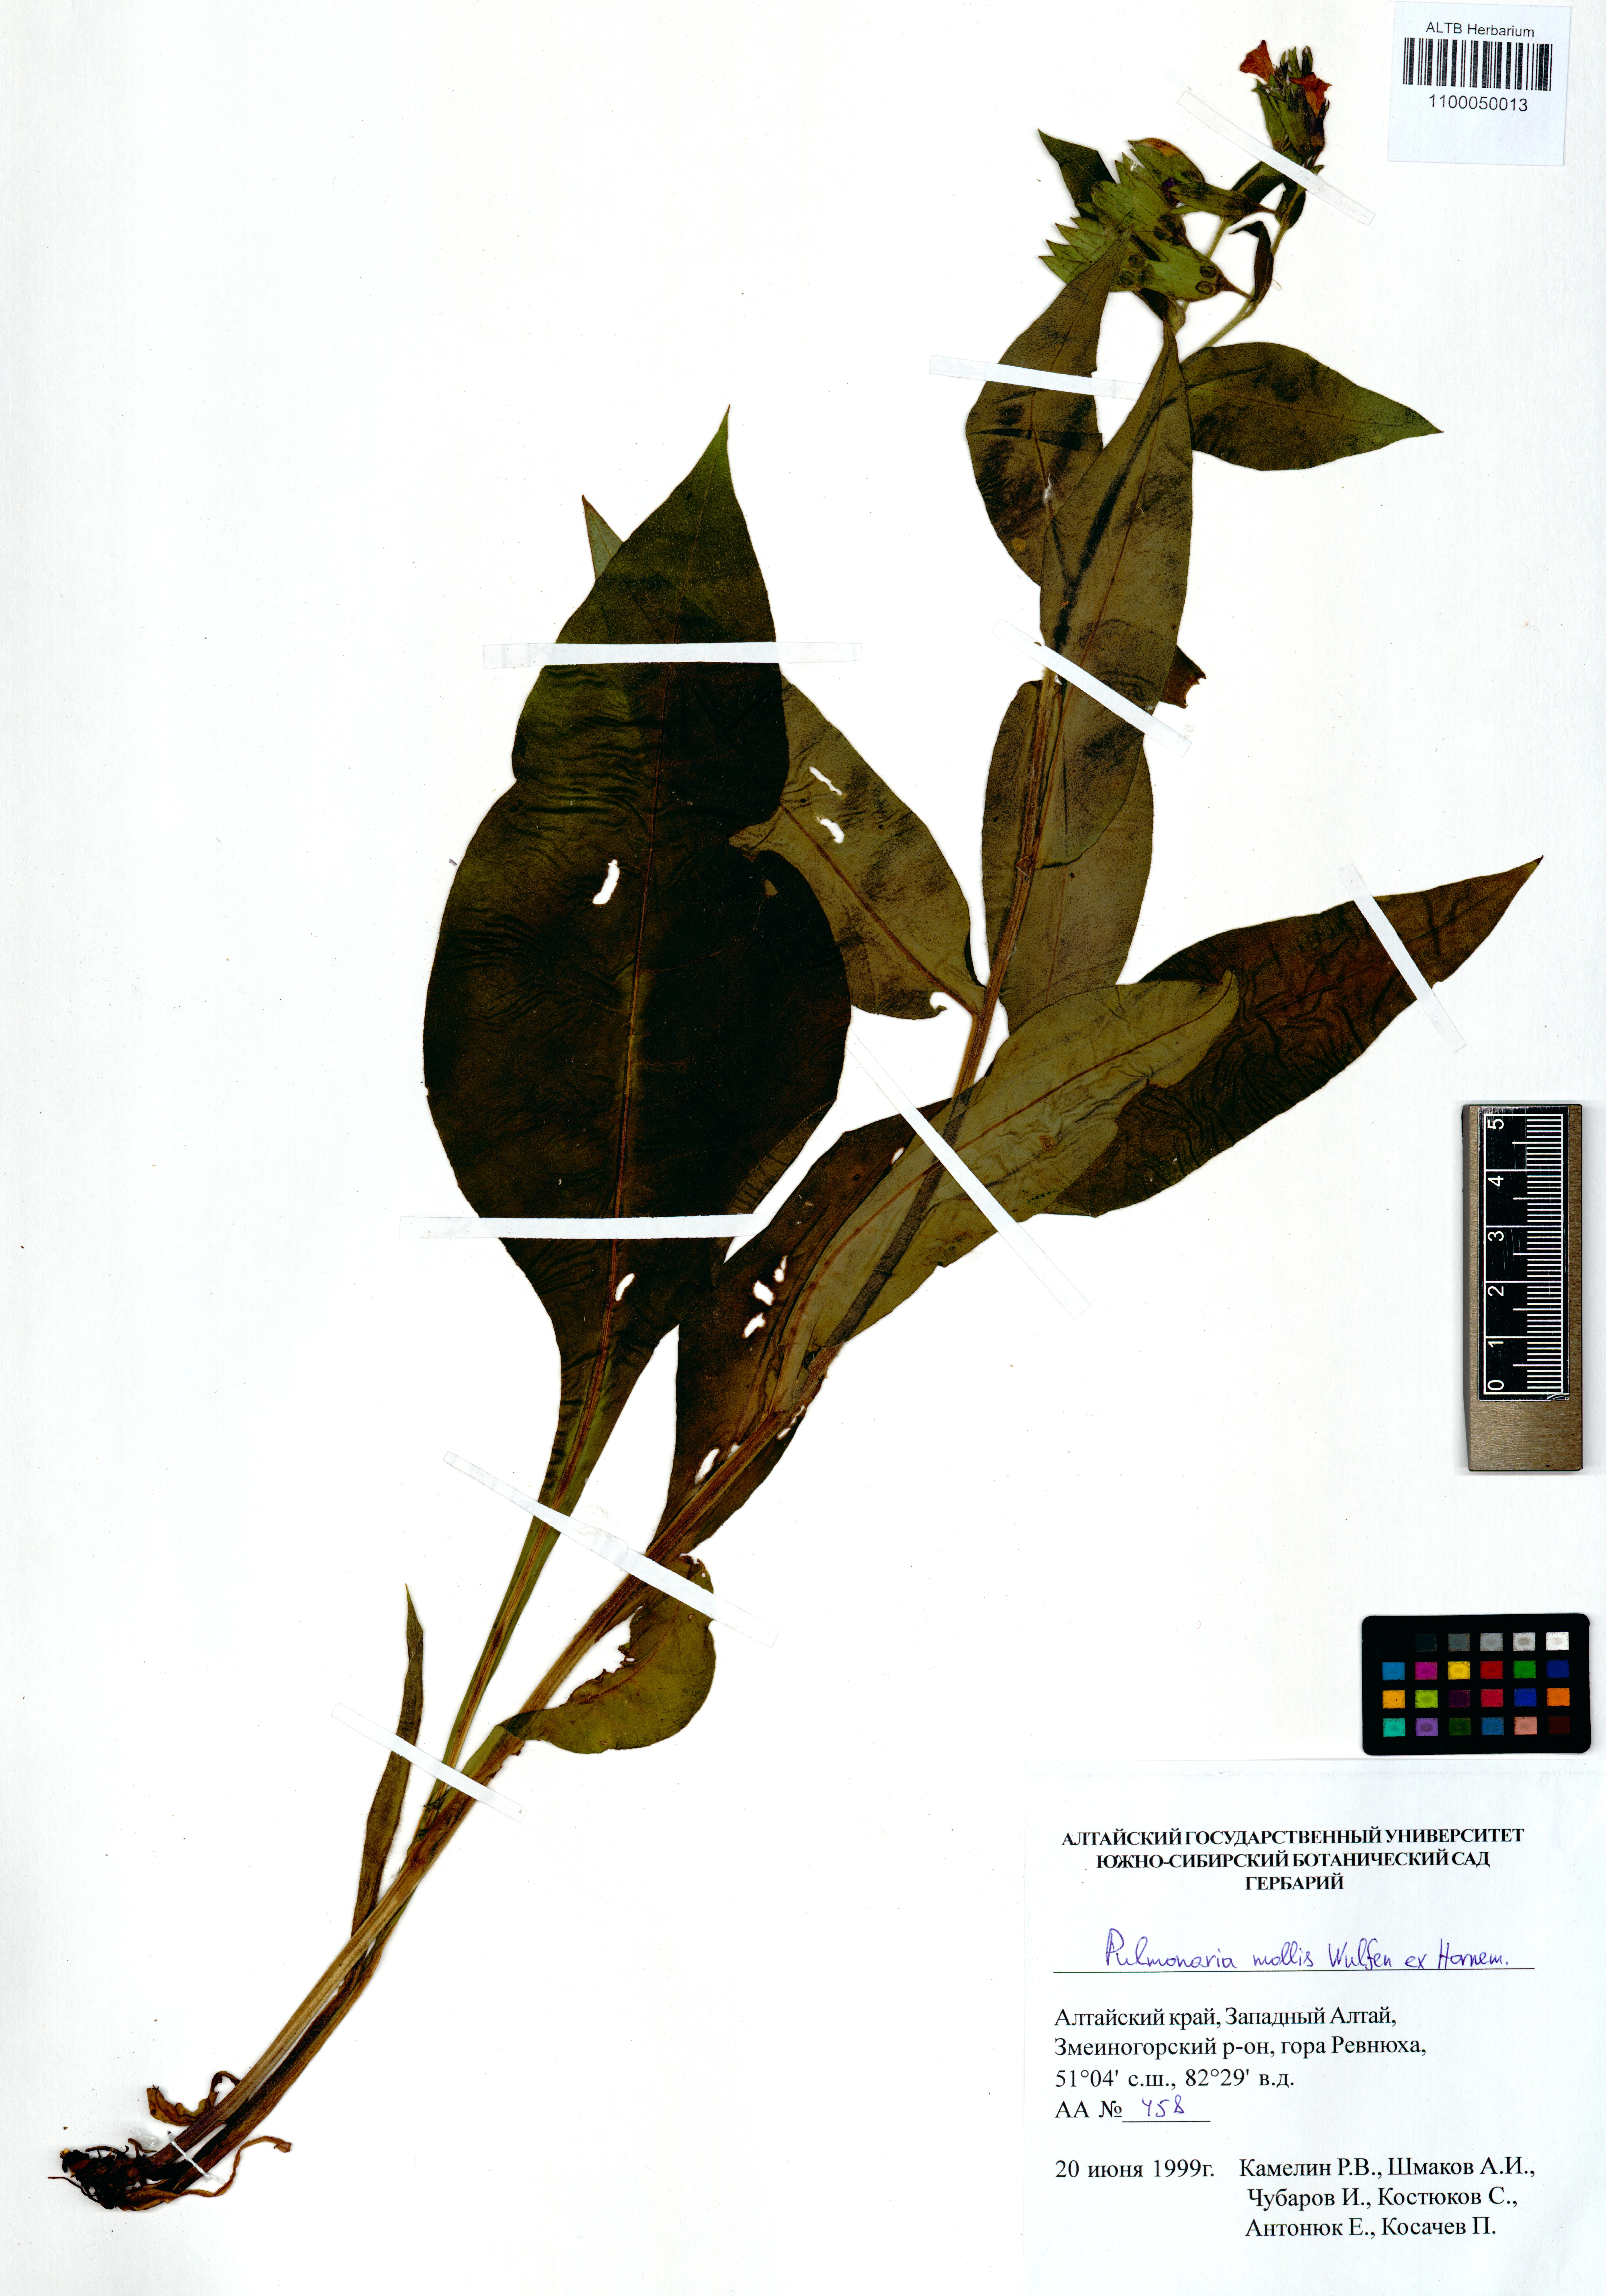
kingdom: Plantae
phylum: Tracheophyta
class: Magnoliopsida
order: Boraginales
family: Boraginaceae
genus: Pulmonaria
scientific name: Pulmonaria mollis
